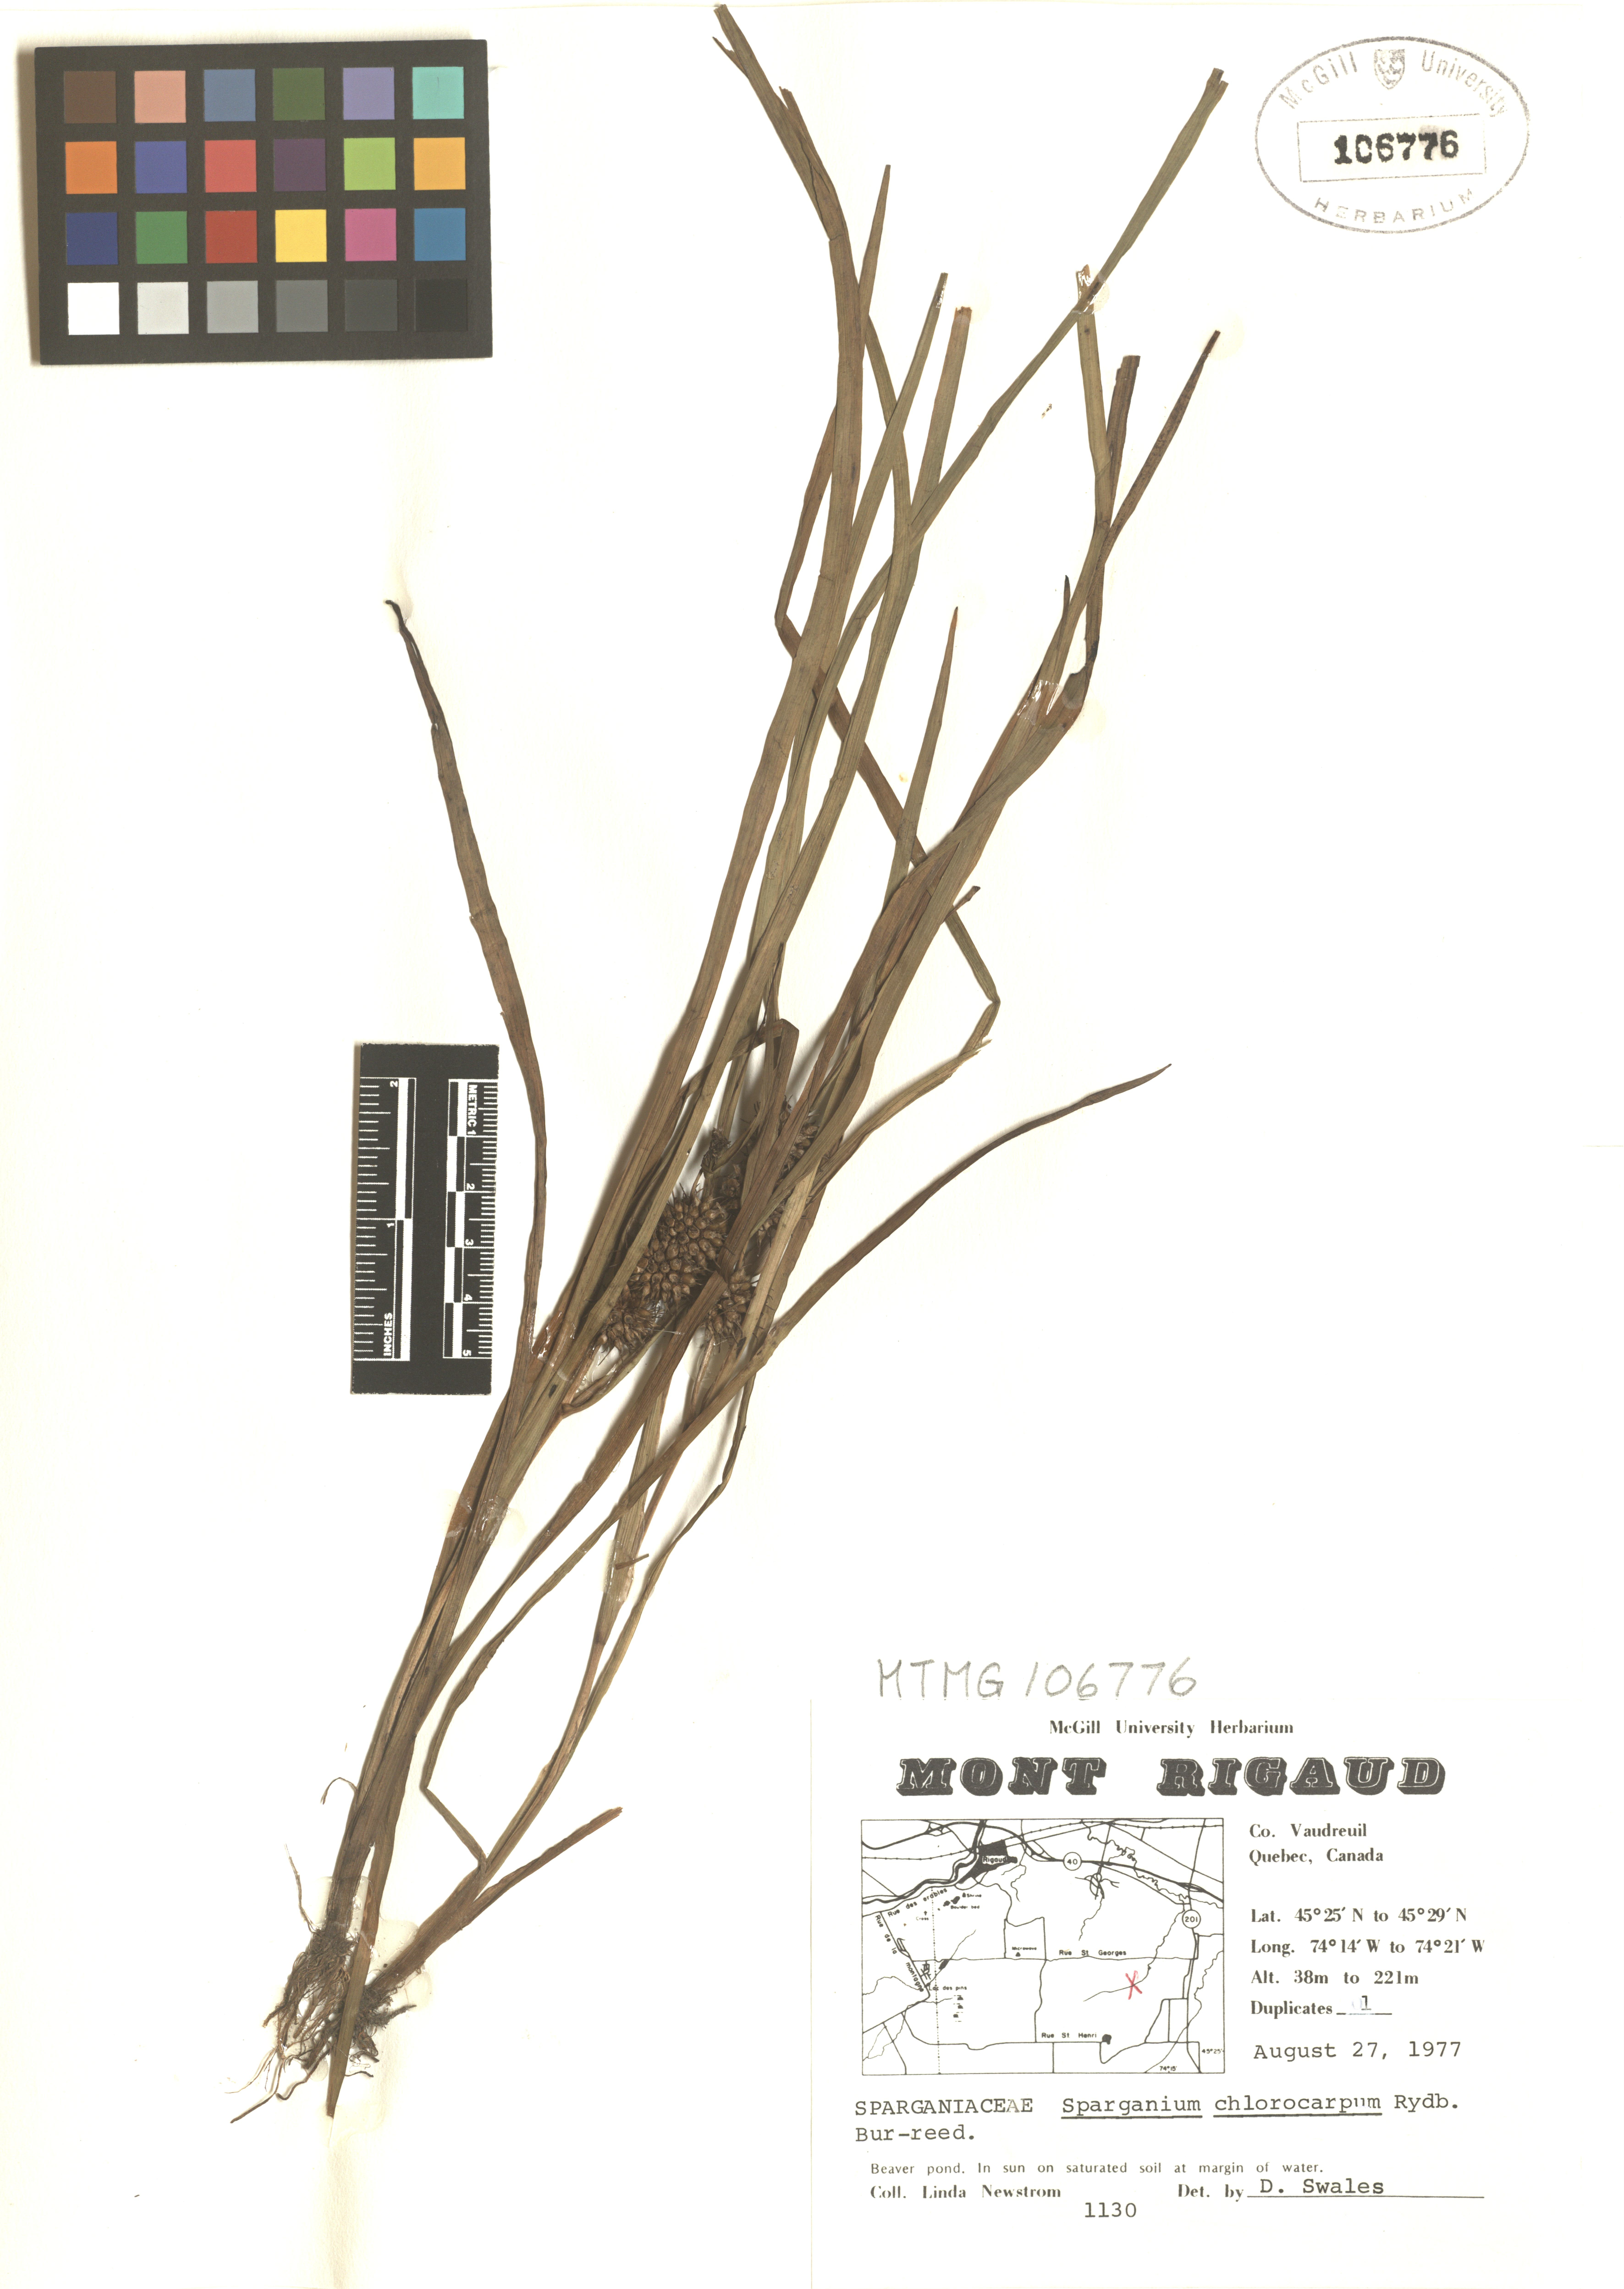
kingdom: Plantae
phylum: Tracheophyta
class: Liliopsida
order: Poales
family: Typhaceae
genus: Sparganium
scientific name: Sparganium emersum
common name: Unbranched bur-reed
